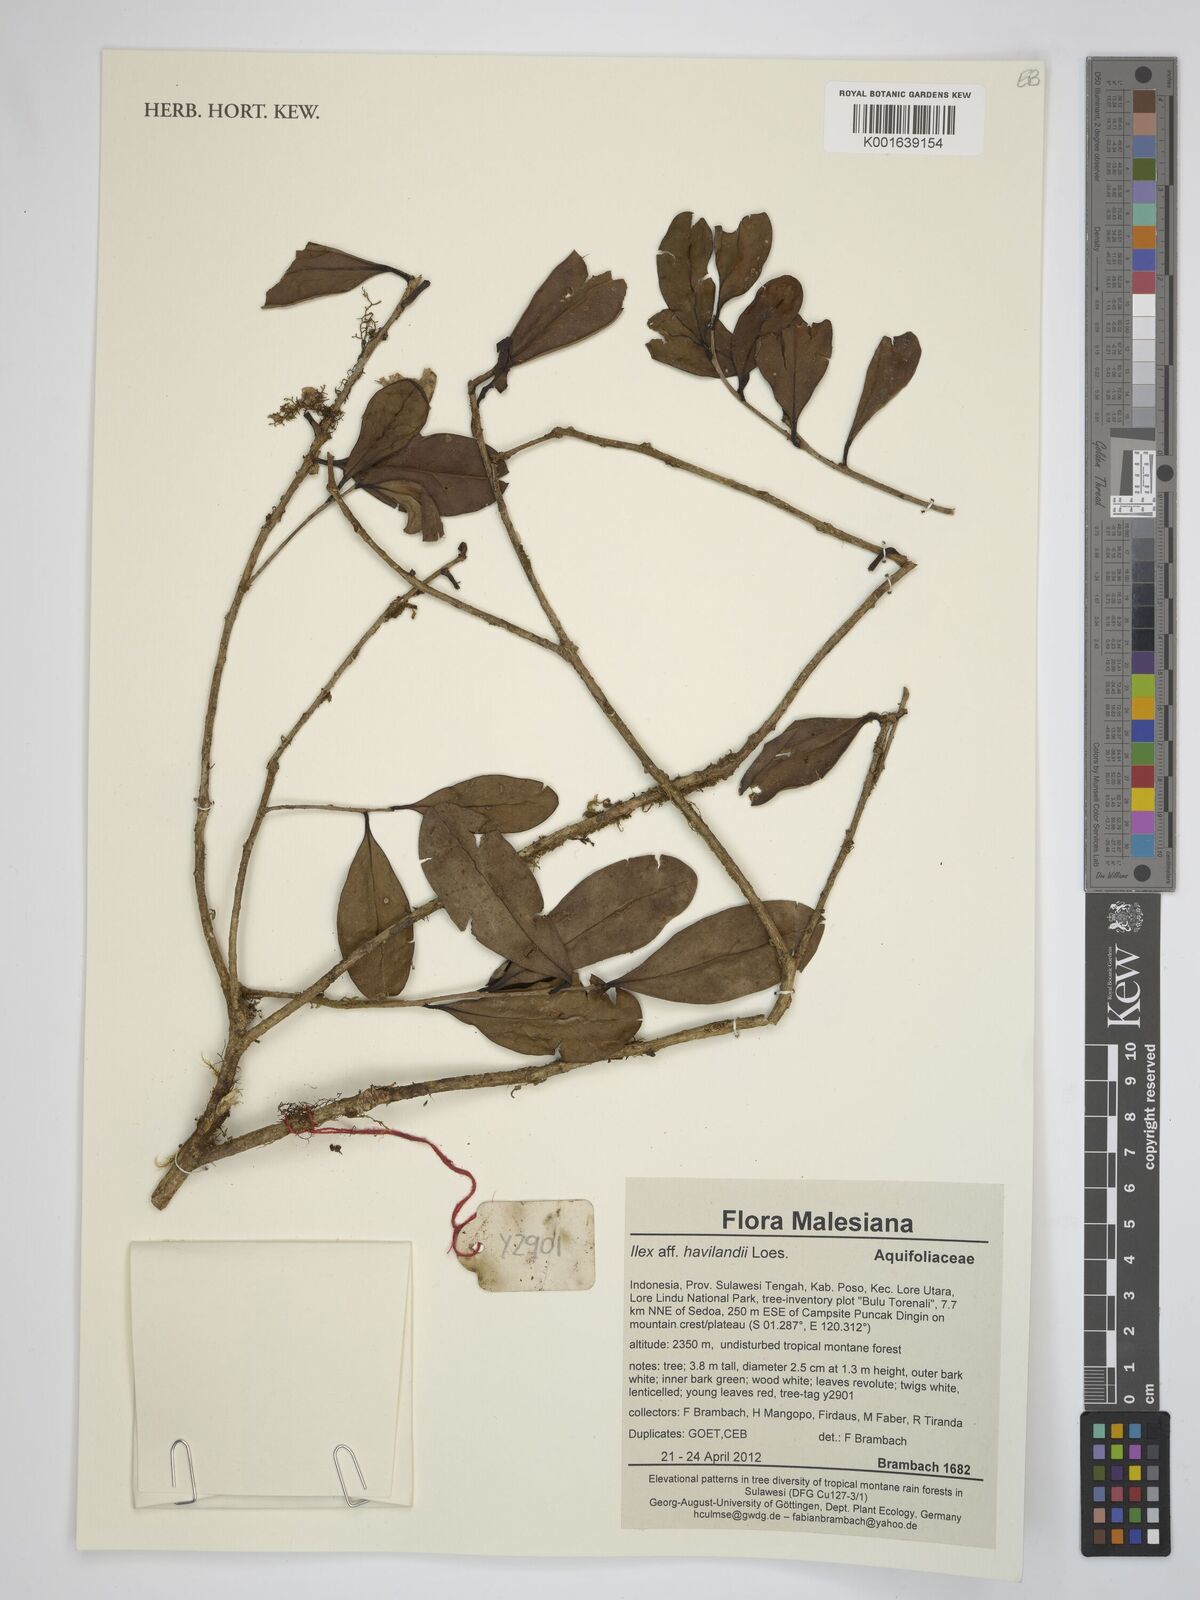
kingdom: Plantae
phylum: Tracheophyta
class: Magnoliopsida
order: Aquifoliales
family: Aquifoliaceae
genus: Ilex
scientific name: Ilex havilandii
